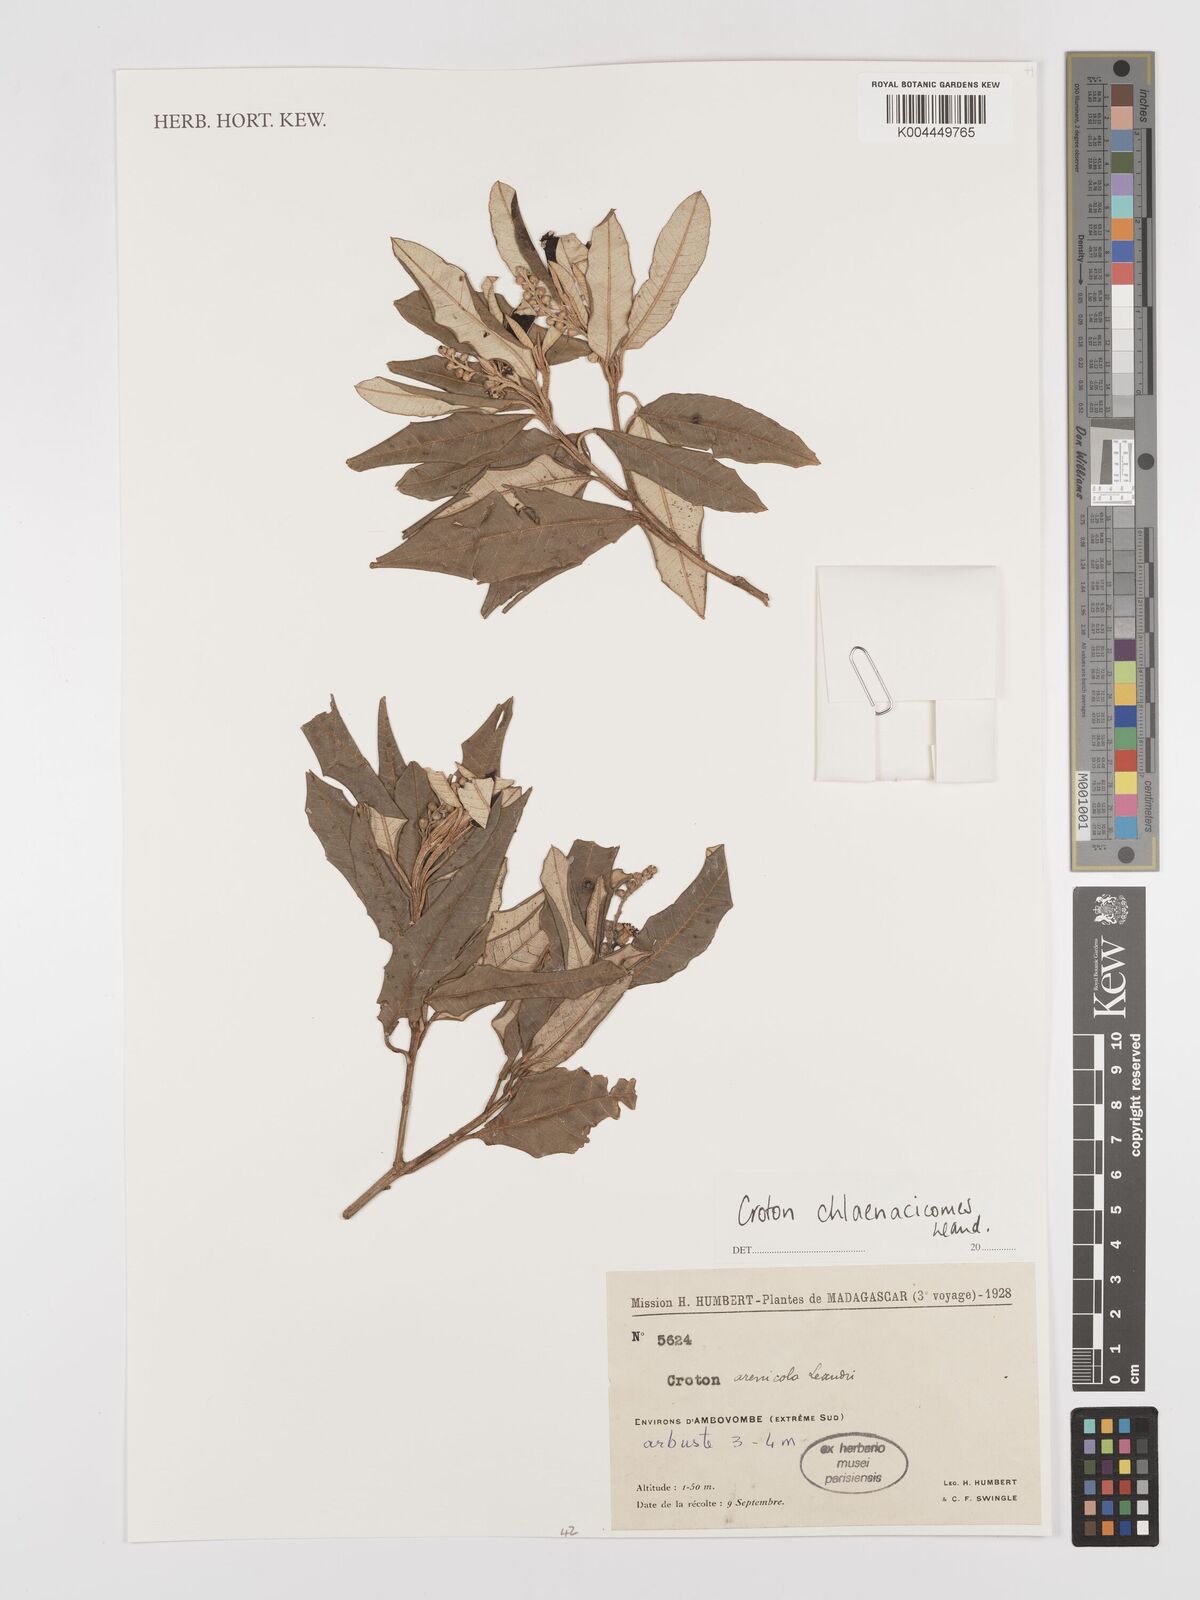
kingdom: Plantae
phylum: Tracheophyta
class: Magnoliopsida
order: Malpighiales
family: Euphorbiaceae
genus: Croton
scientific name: Croton chlaenacicomes
